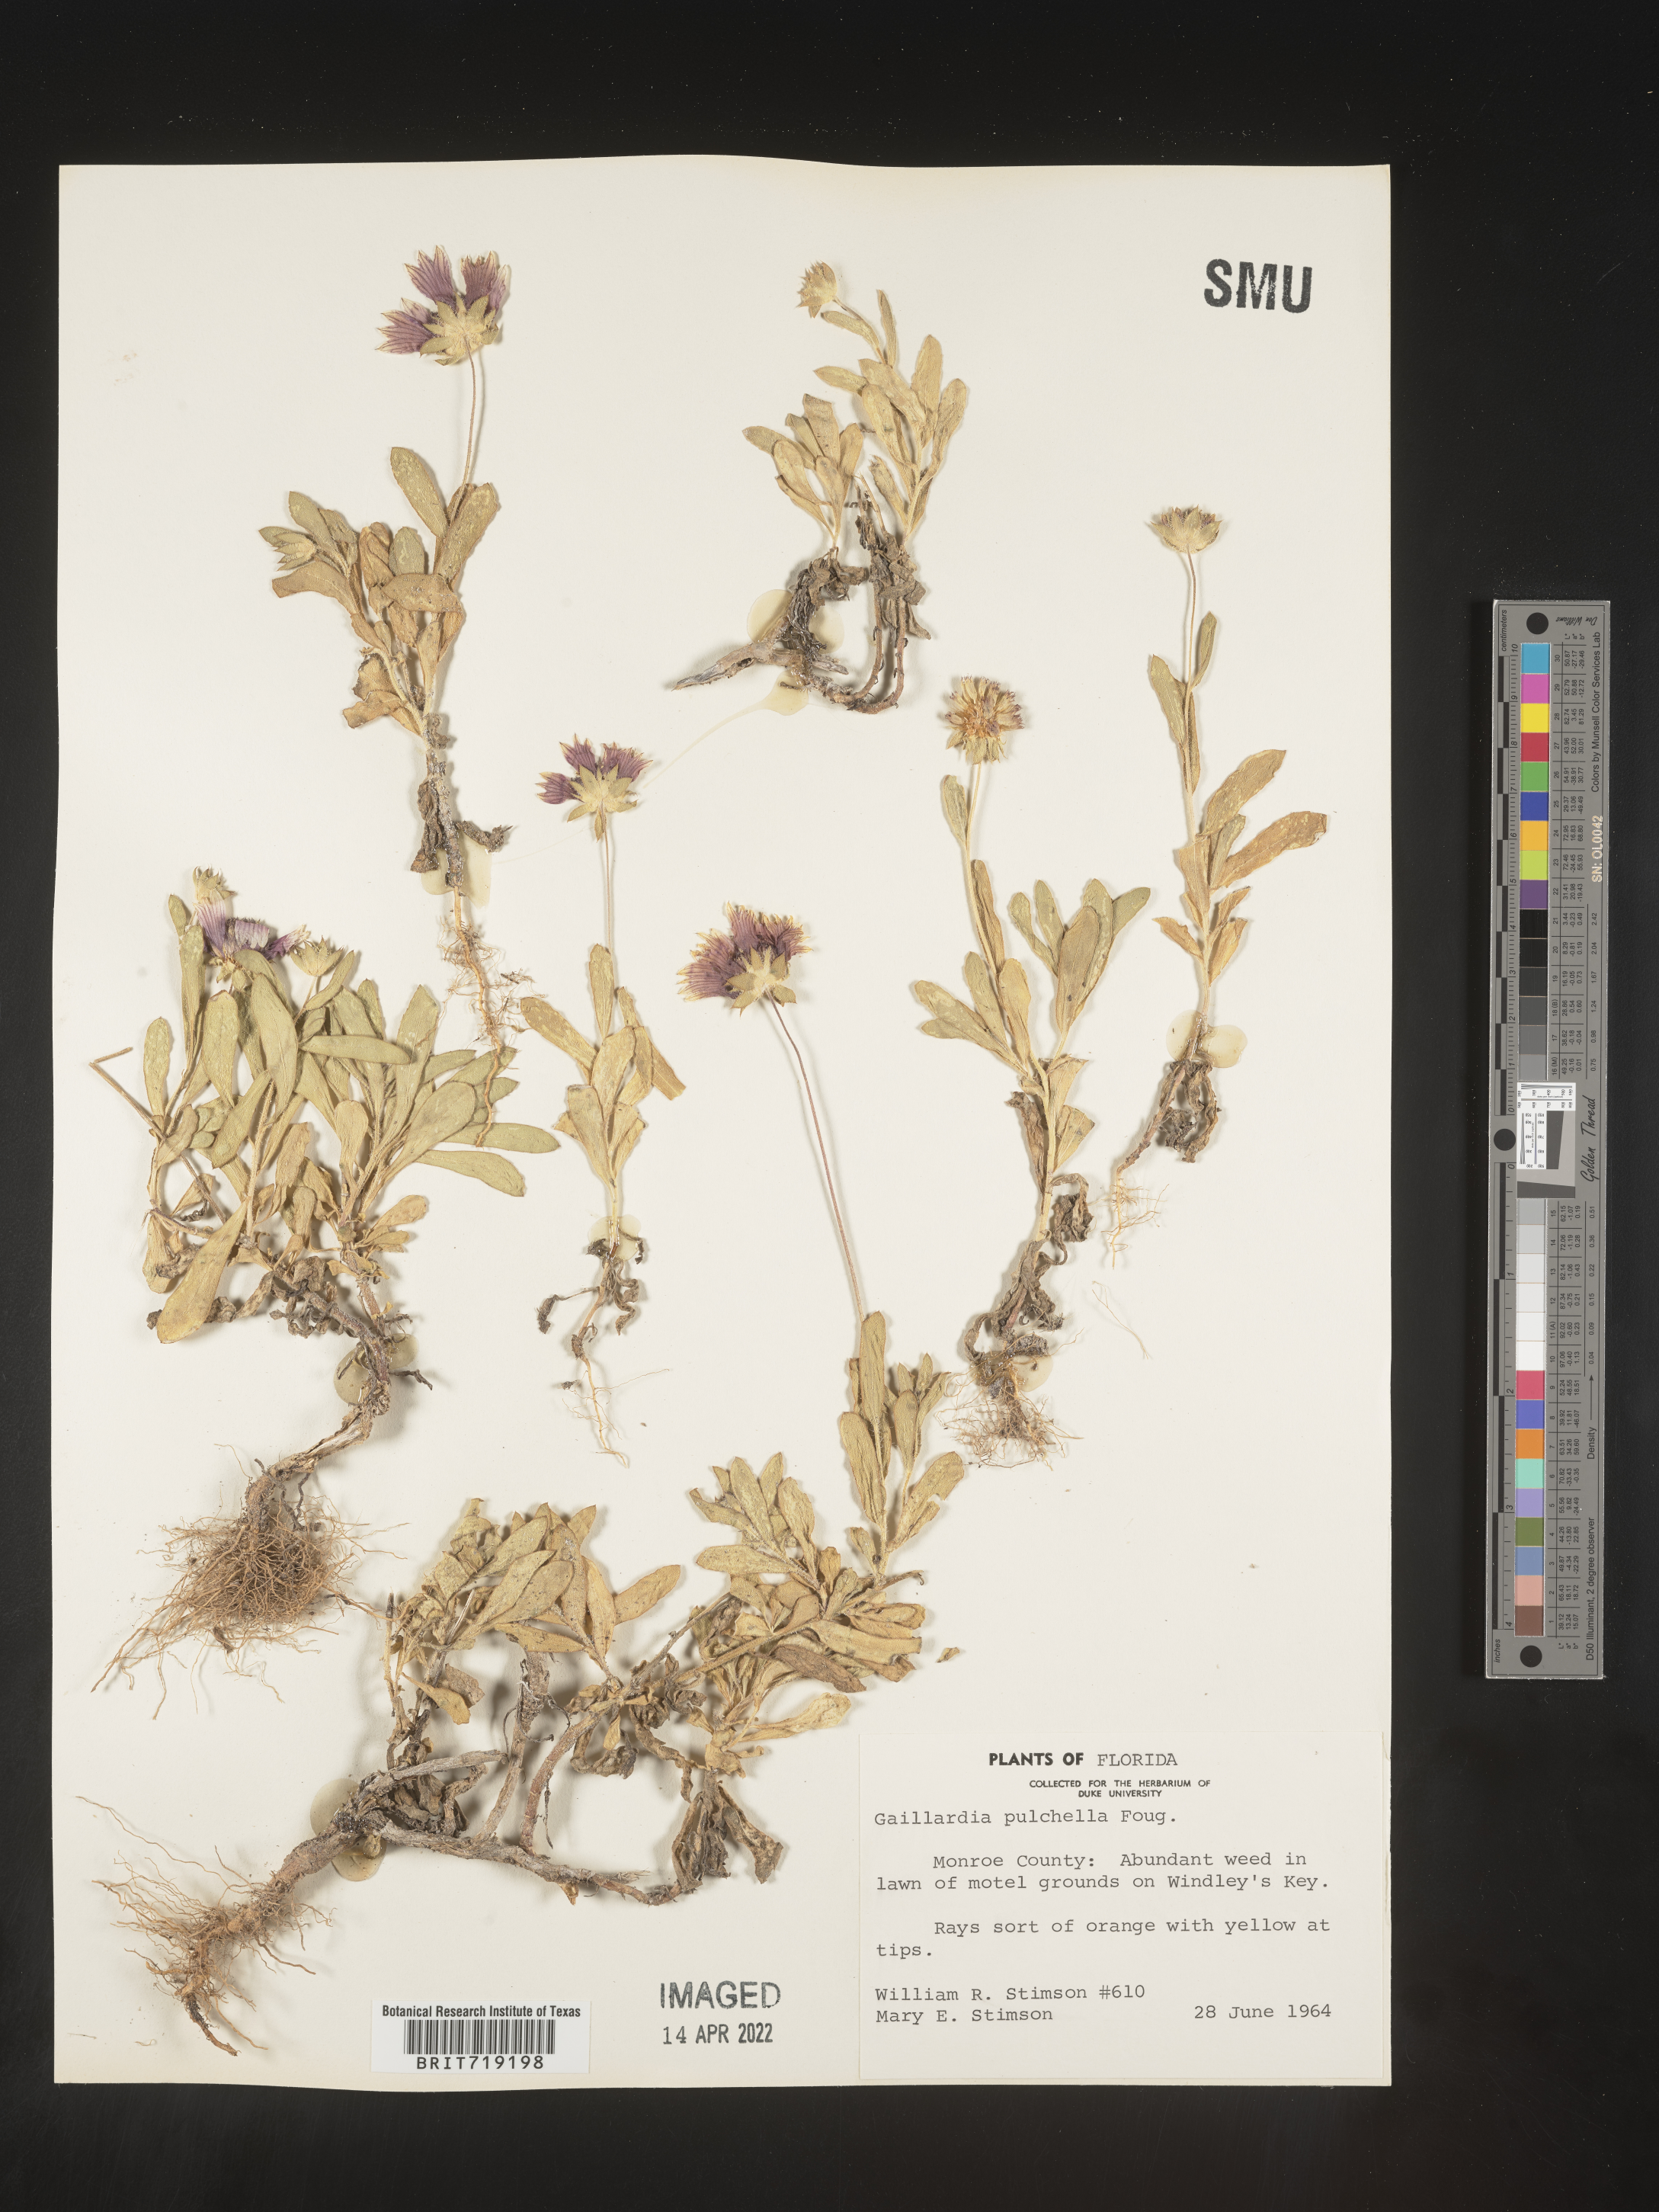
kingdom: Plantae
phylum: Tracheophyta
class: Magnoliopsida
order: Asterales
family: Asteraceae
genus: Gaillardia
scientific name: Gaillardia pulchella
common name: Firewheel
